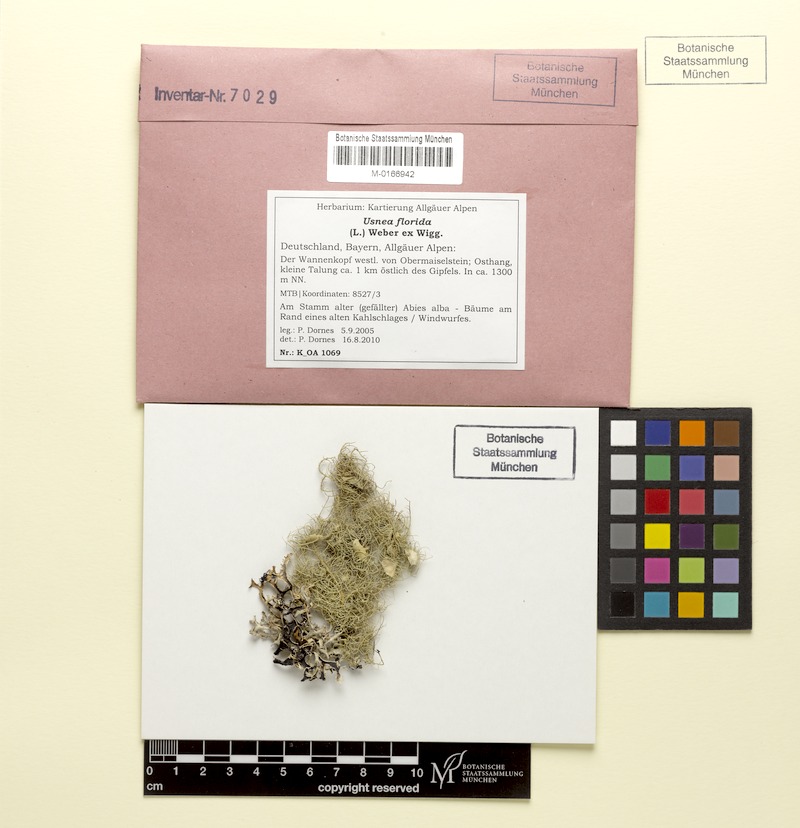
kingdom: Fungi
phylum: Ascomycota
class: Lecanoromycetes
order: Lecanorales
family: Parmeliaceae
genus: Usnea
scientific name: Usnea florida
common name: Witches' whiskers lichen
